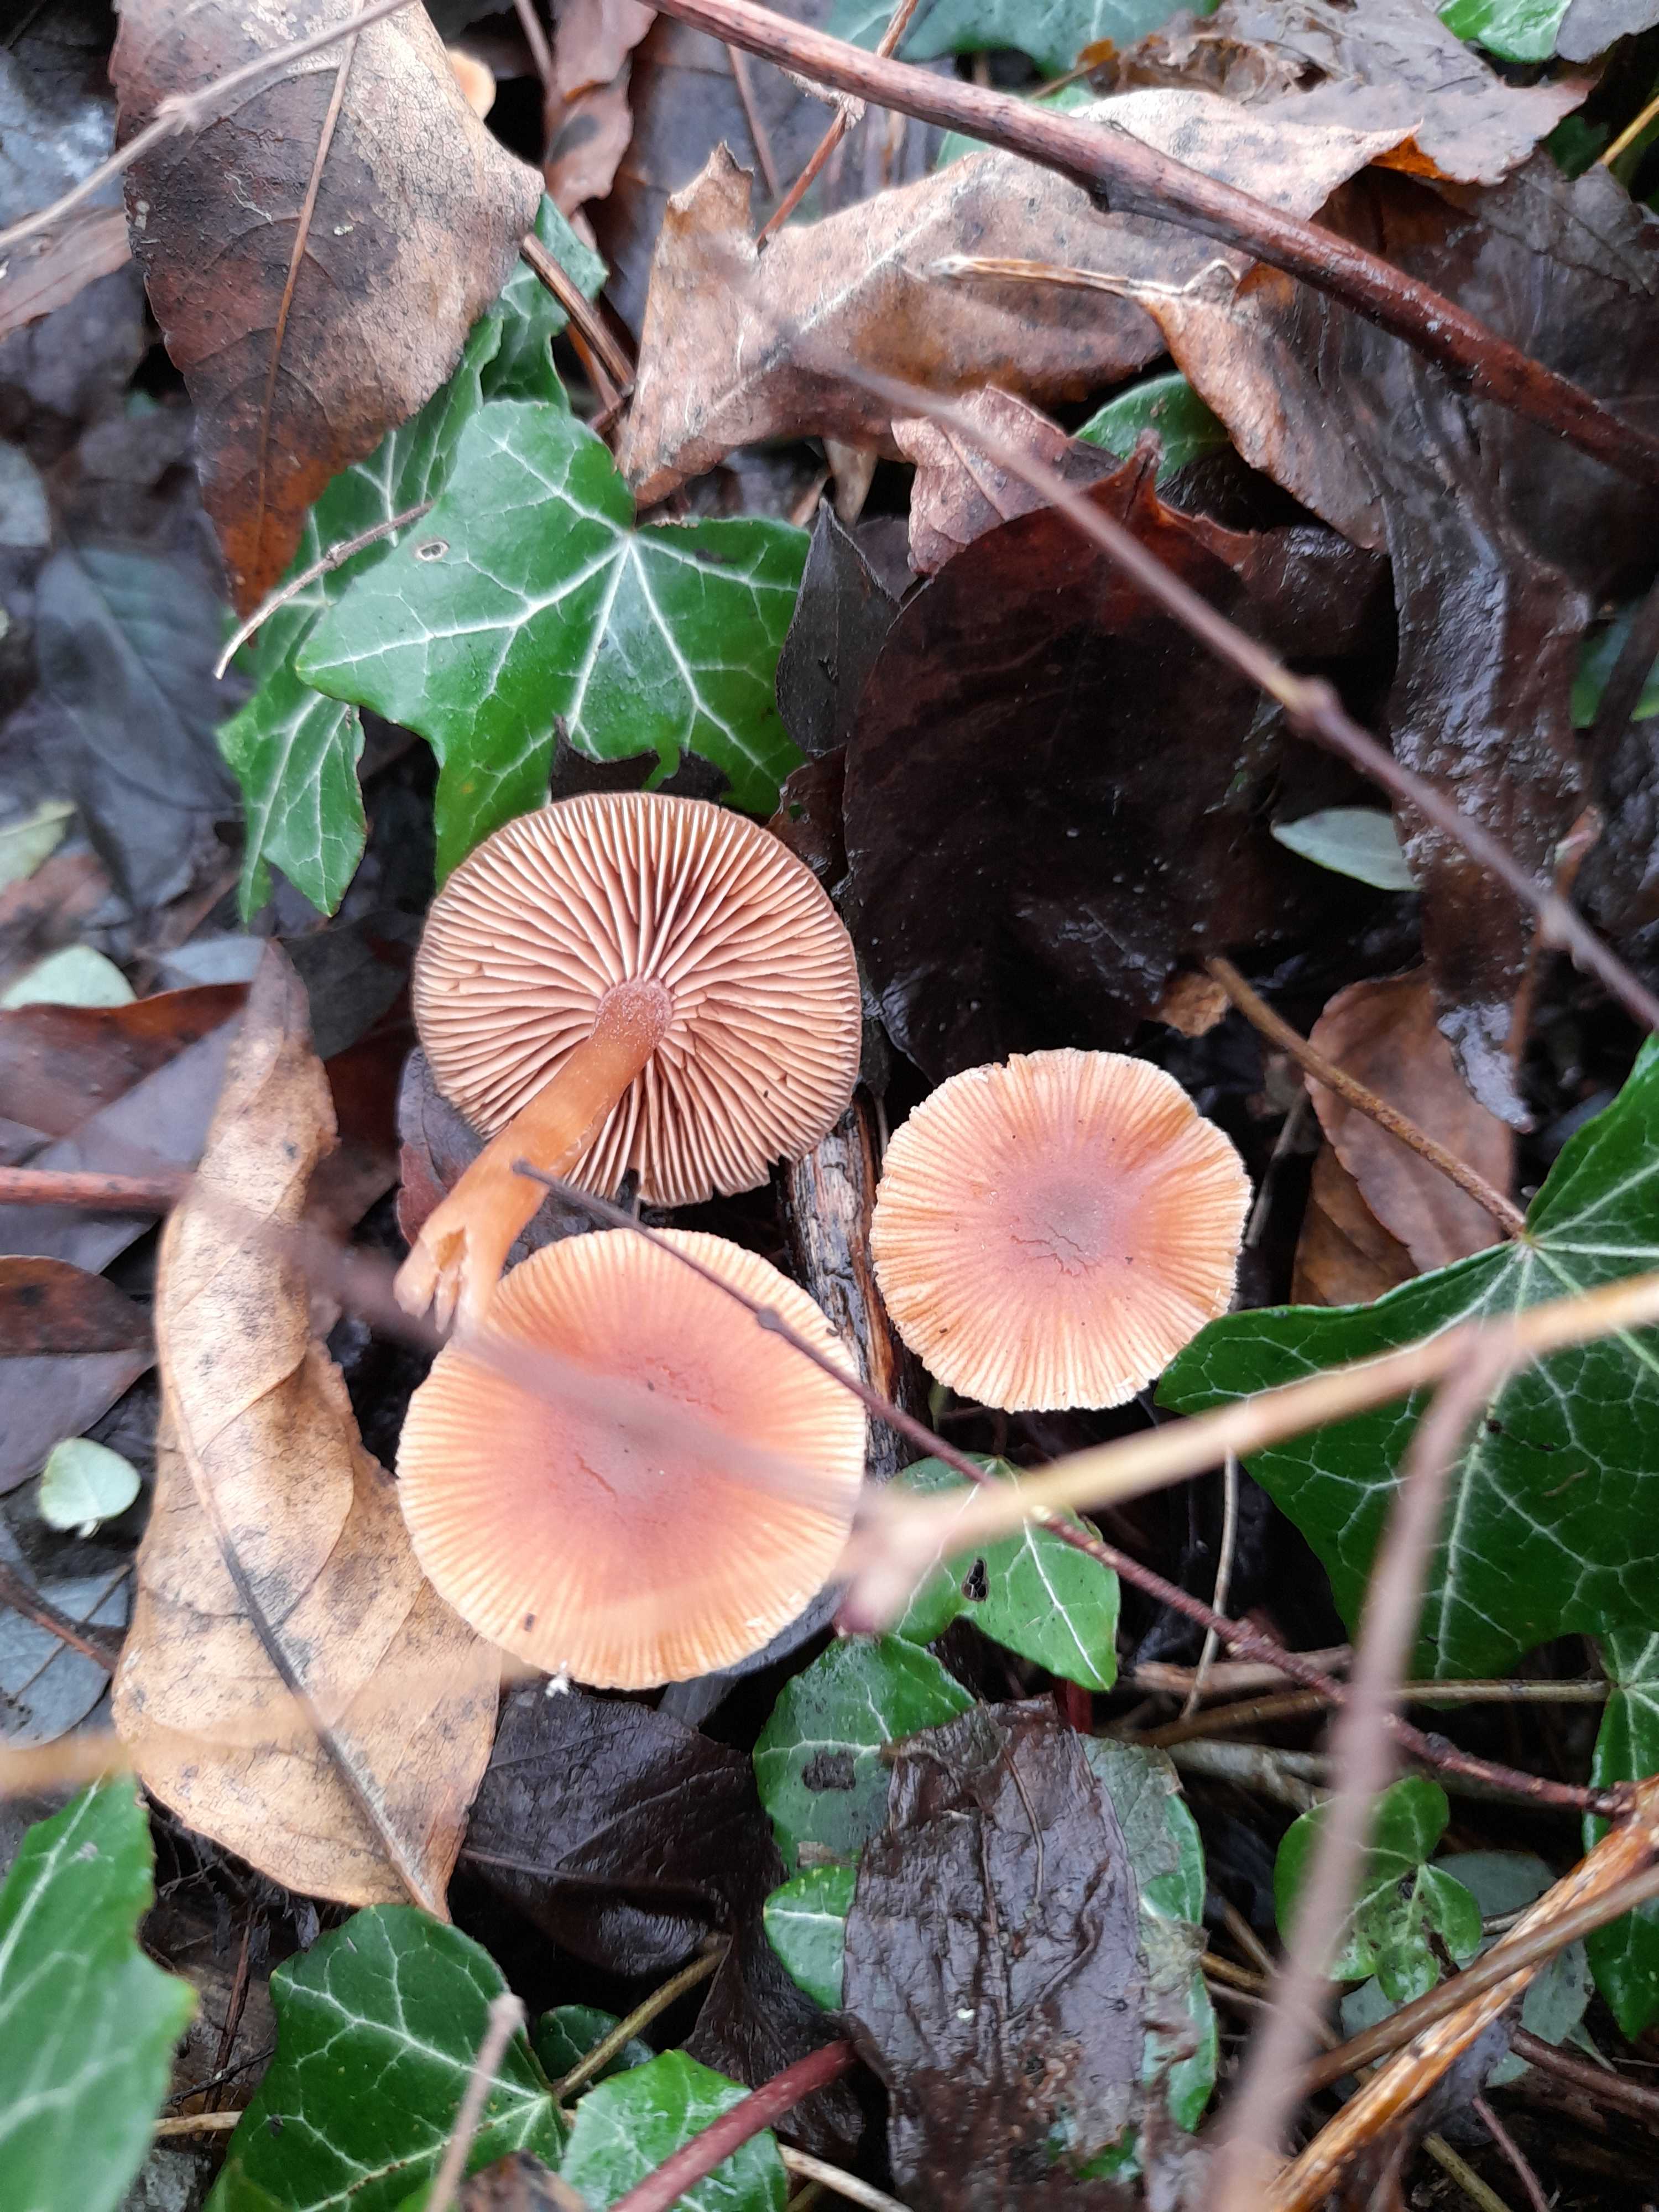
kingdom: Fungi
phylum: Basidiomycota
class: Agaricomycetes
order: Agaricales
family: Tubariaceae
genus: Tubaria
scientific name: Tubaria furfuracea
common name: kliddet fnughat
